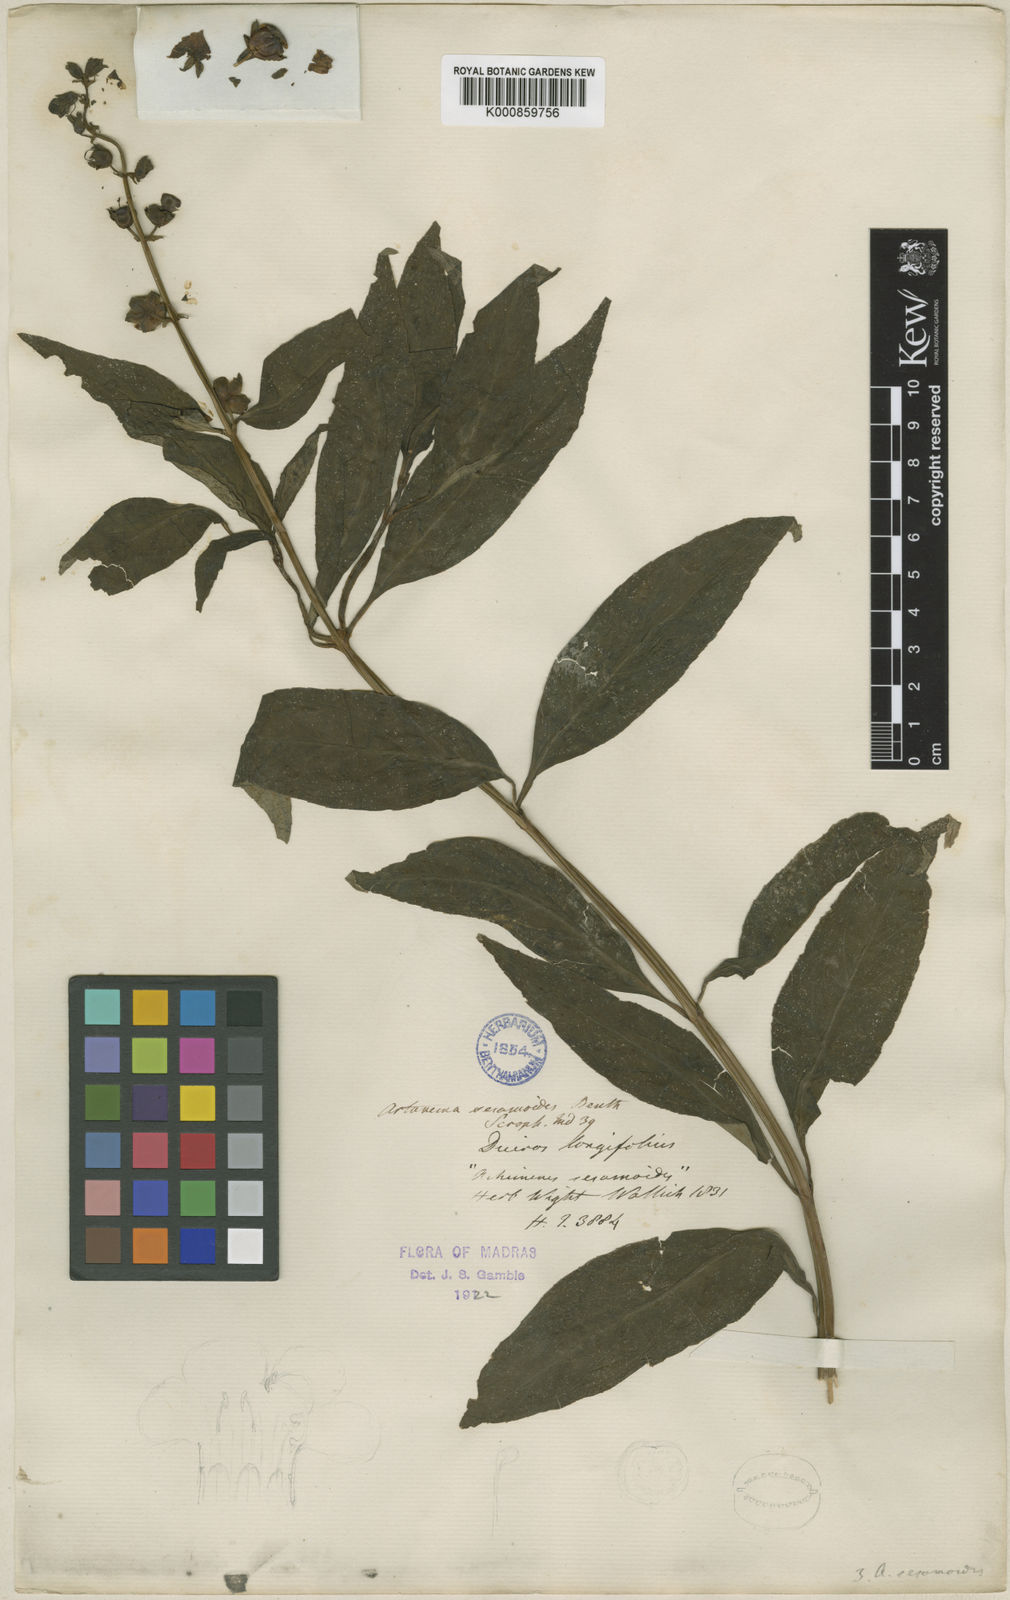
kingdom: Plantae
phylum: Tracheophyta
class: Magnoliopsida
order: Lamiales
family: Linderniaceae
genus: Artanema
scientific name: Artanema longifolium
